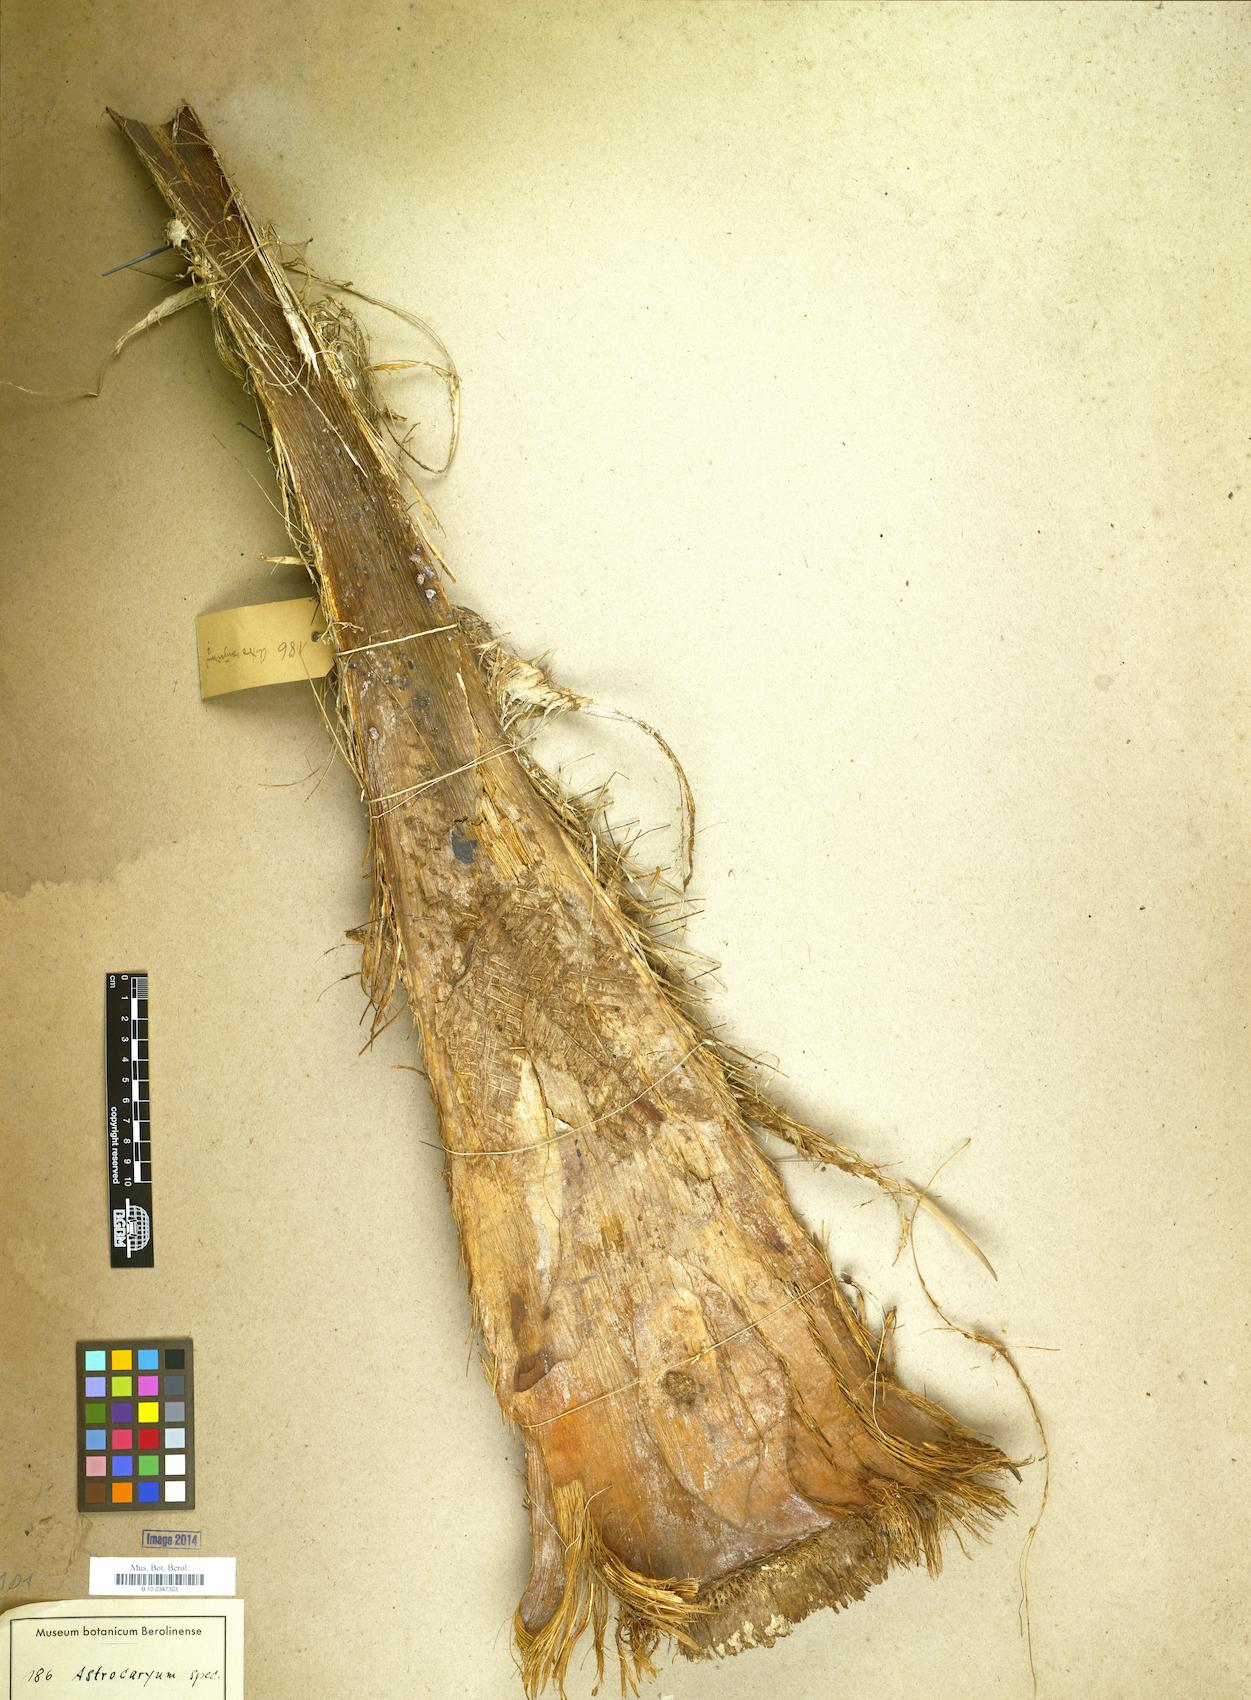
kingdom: Plantae
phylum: Tracheophyta
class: Liliopsida
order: Arecales
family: Arecaceae
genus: Astrocaryum
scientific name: Astrocaryum
